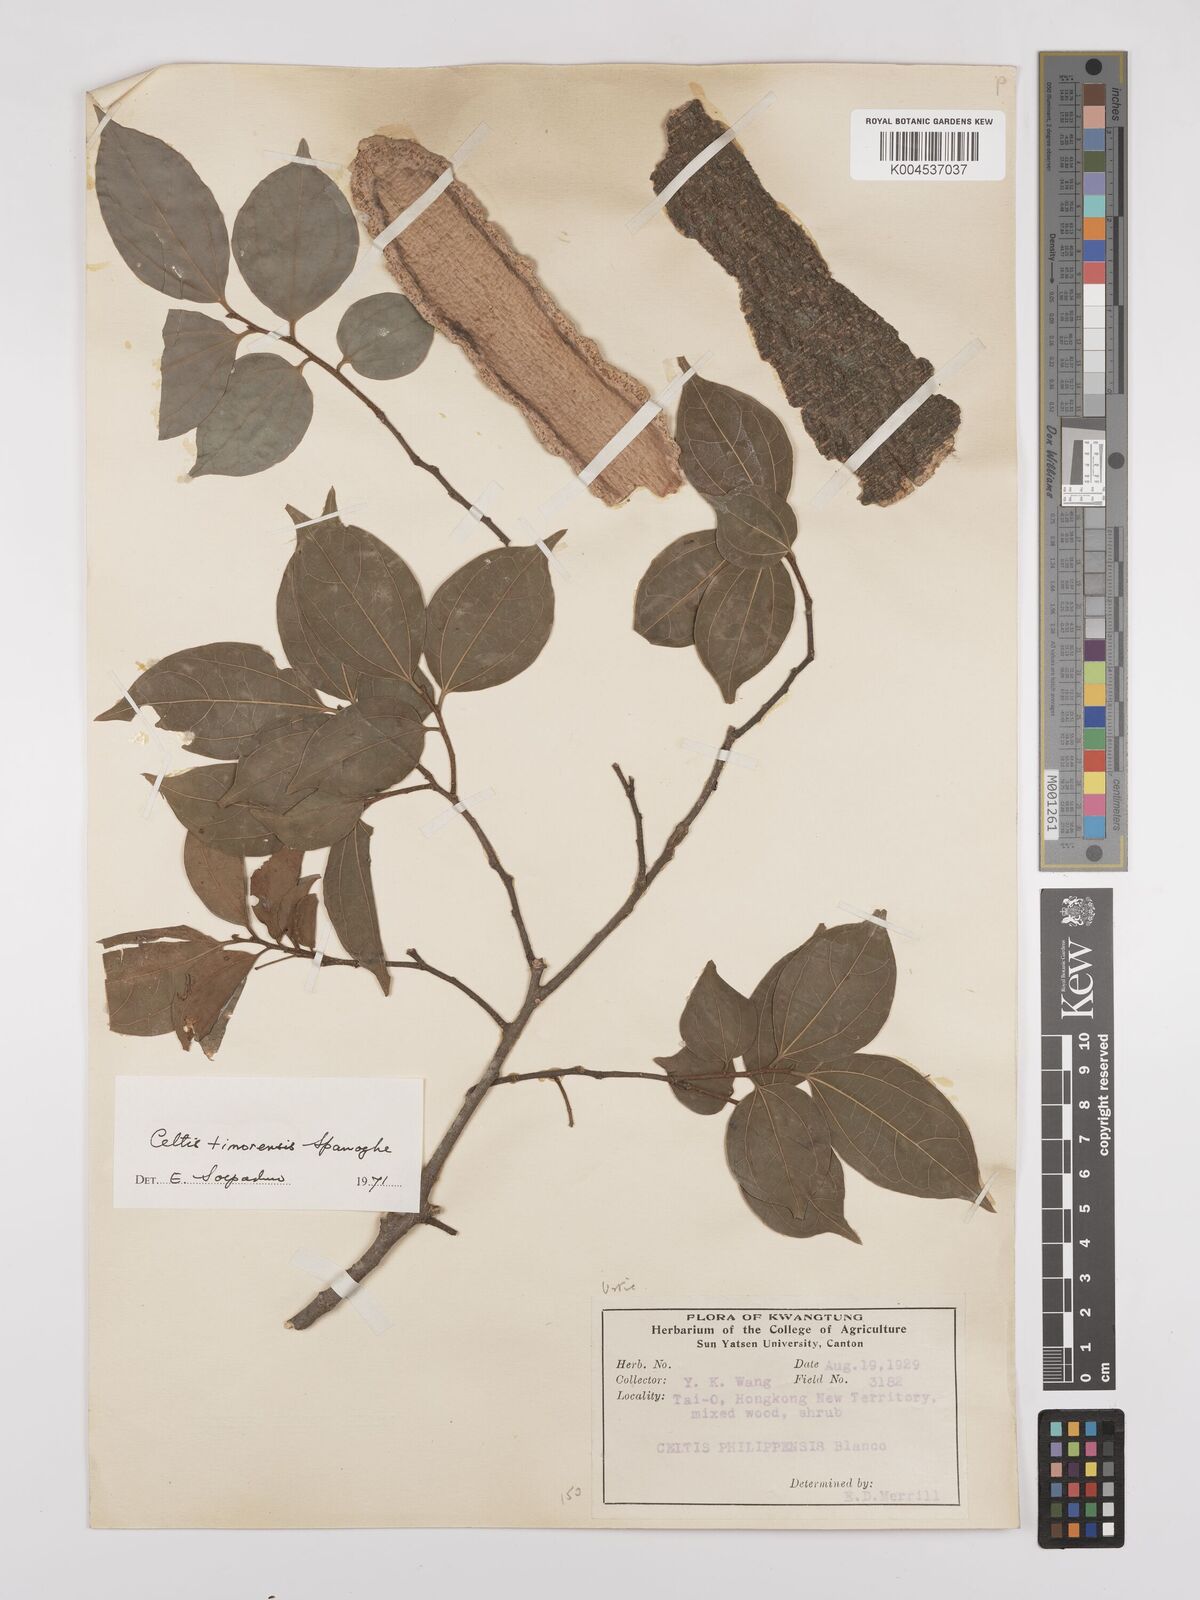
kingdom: Plantae
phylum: Tracheophyta
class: Magnoliopsida
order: Rosales
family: Cannabaceae
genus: Celtis
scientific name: Celtis timorensis
